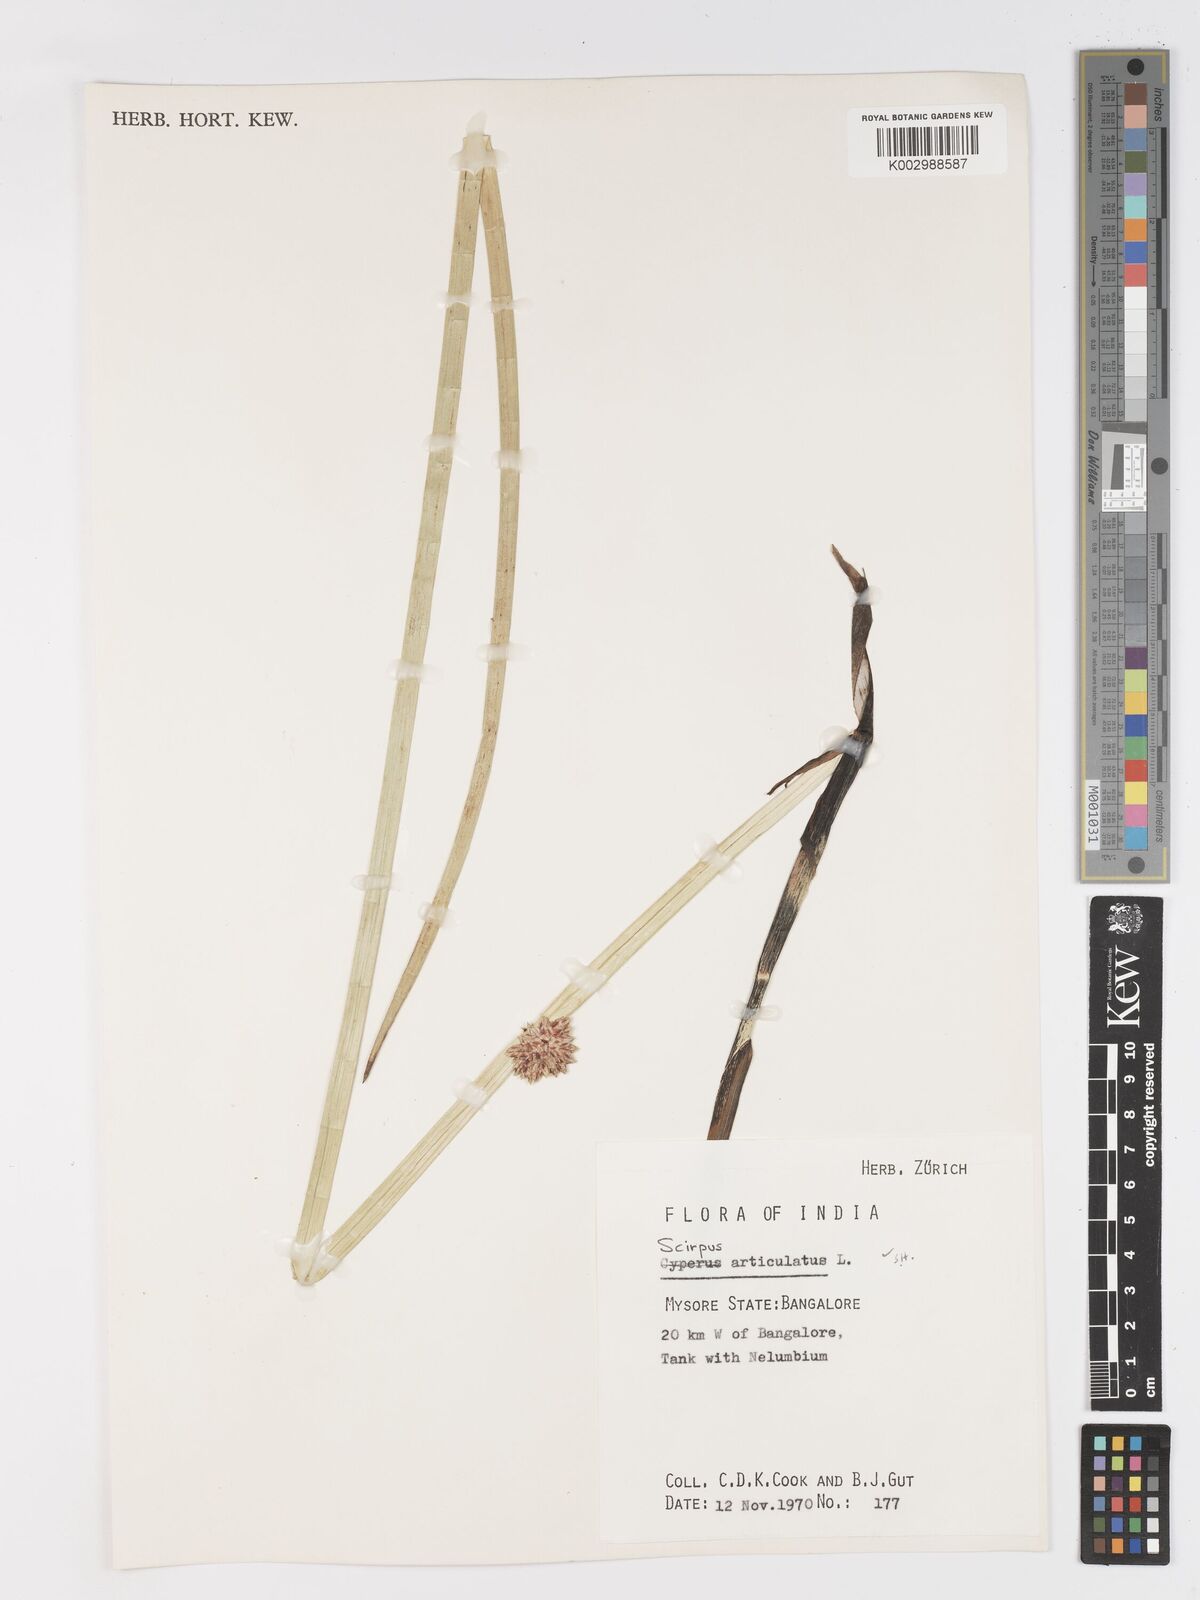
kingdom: Plantae
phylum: Tracheophyta
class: Liliopsida
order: Poales
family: Cyperaceae
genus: Schoenoplectiella
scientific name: Schoenoplectiella articulata
